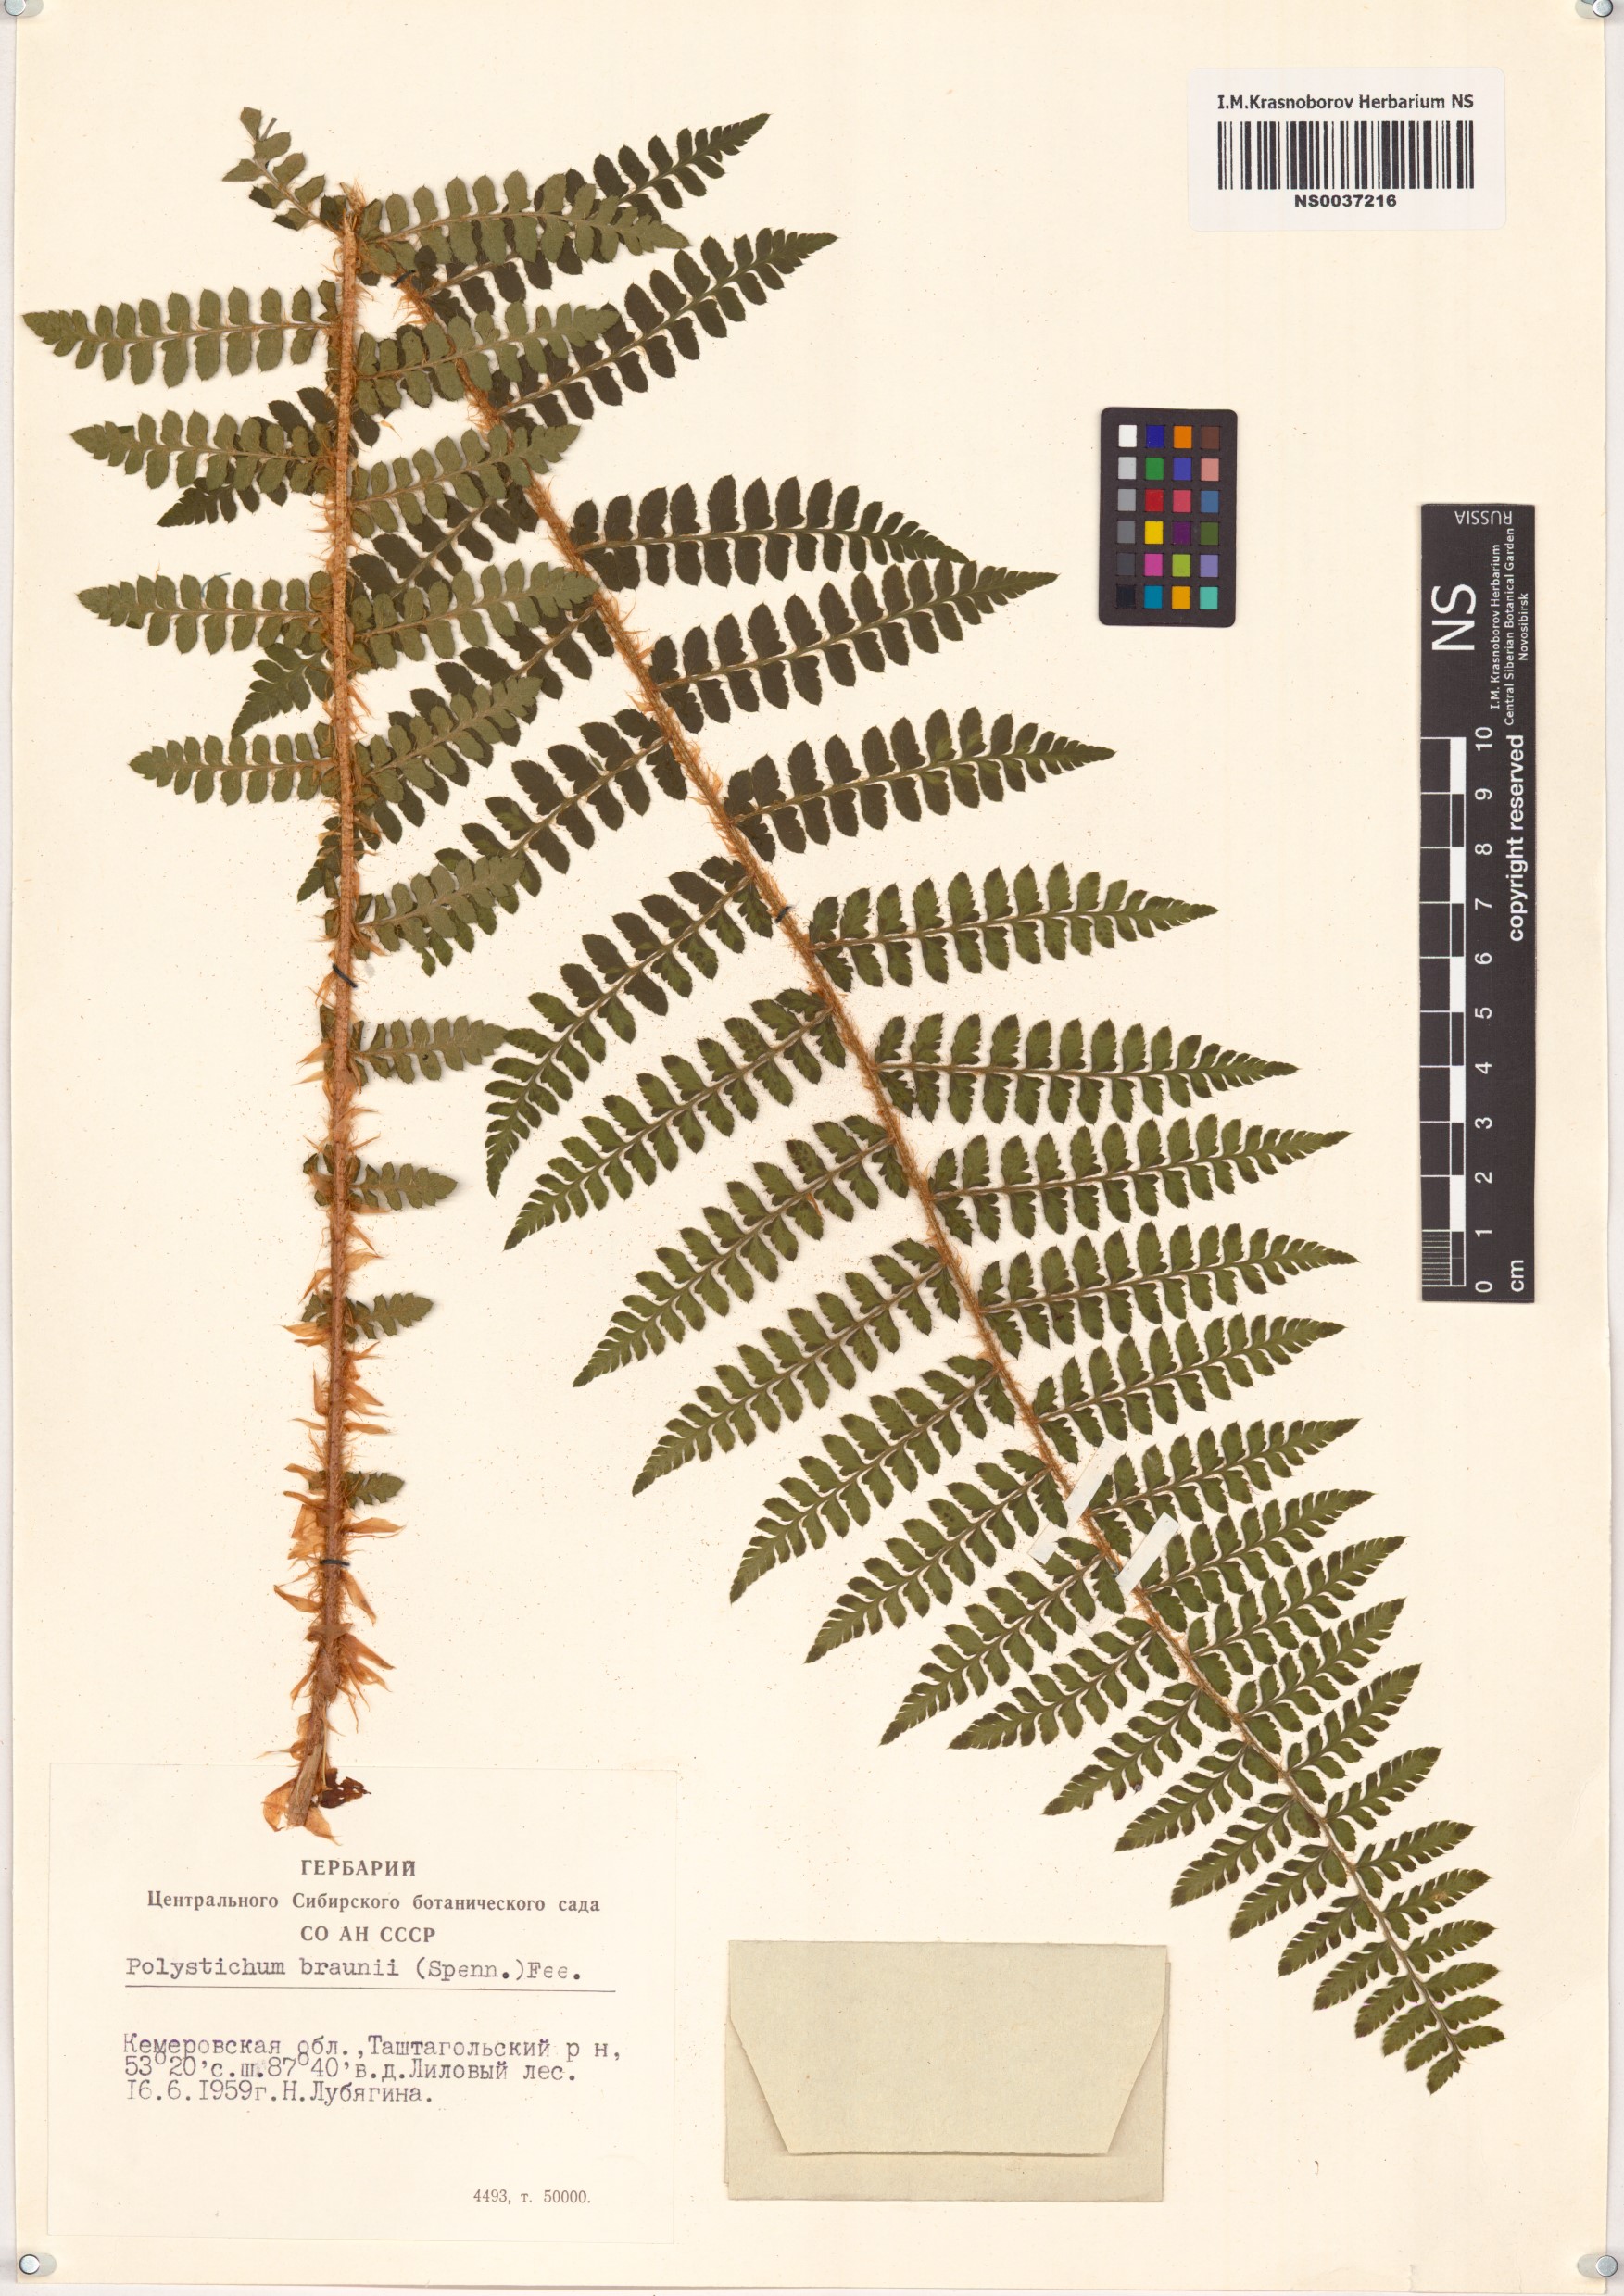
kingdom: Plantae
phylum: Tracheophyta
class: Polypodiopsida
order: Polypodiales
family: Dryopteridaceae
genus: Polystichum
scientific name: Polystichum braunii
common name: Braun's holly fern
